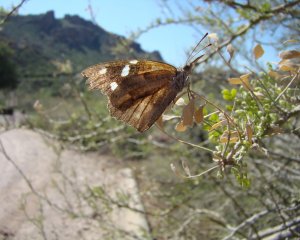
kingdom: Animalia
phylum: Arthropoda
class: Insecta
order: Lepidoptera
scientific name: Lepidoptera
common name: Butterflies
